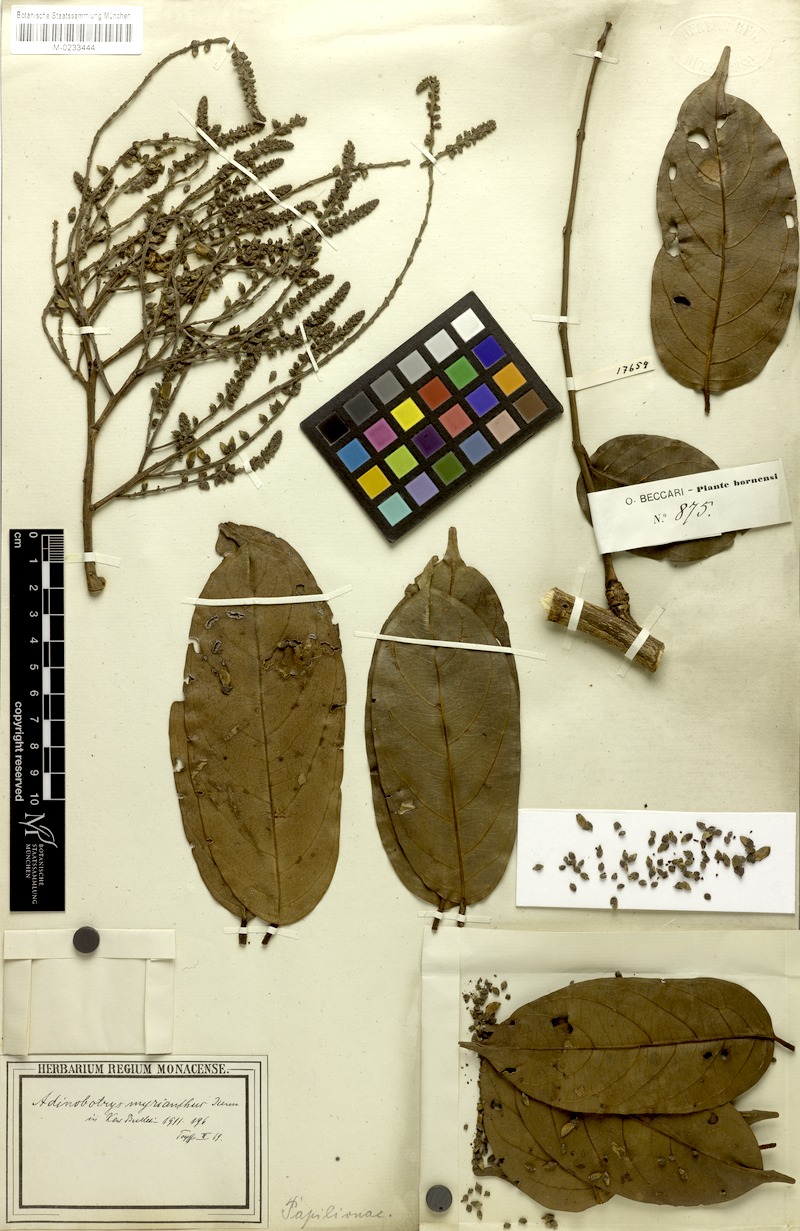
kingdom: Plantae
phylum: Tracheophyta
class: Magnoliopsida
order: Fabales
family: Fabaceae
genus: Whitfordiodendron
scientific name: Whitfordiodendron nieuwenhuisii
